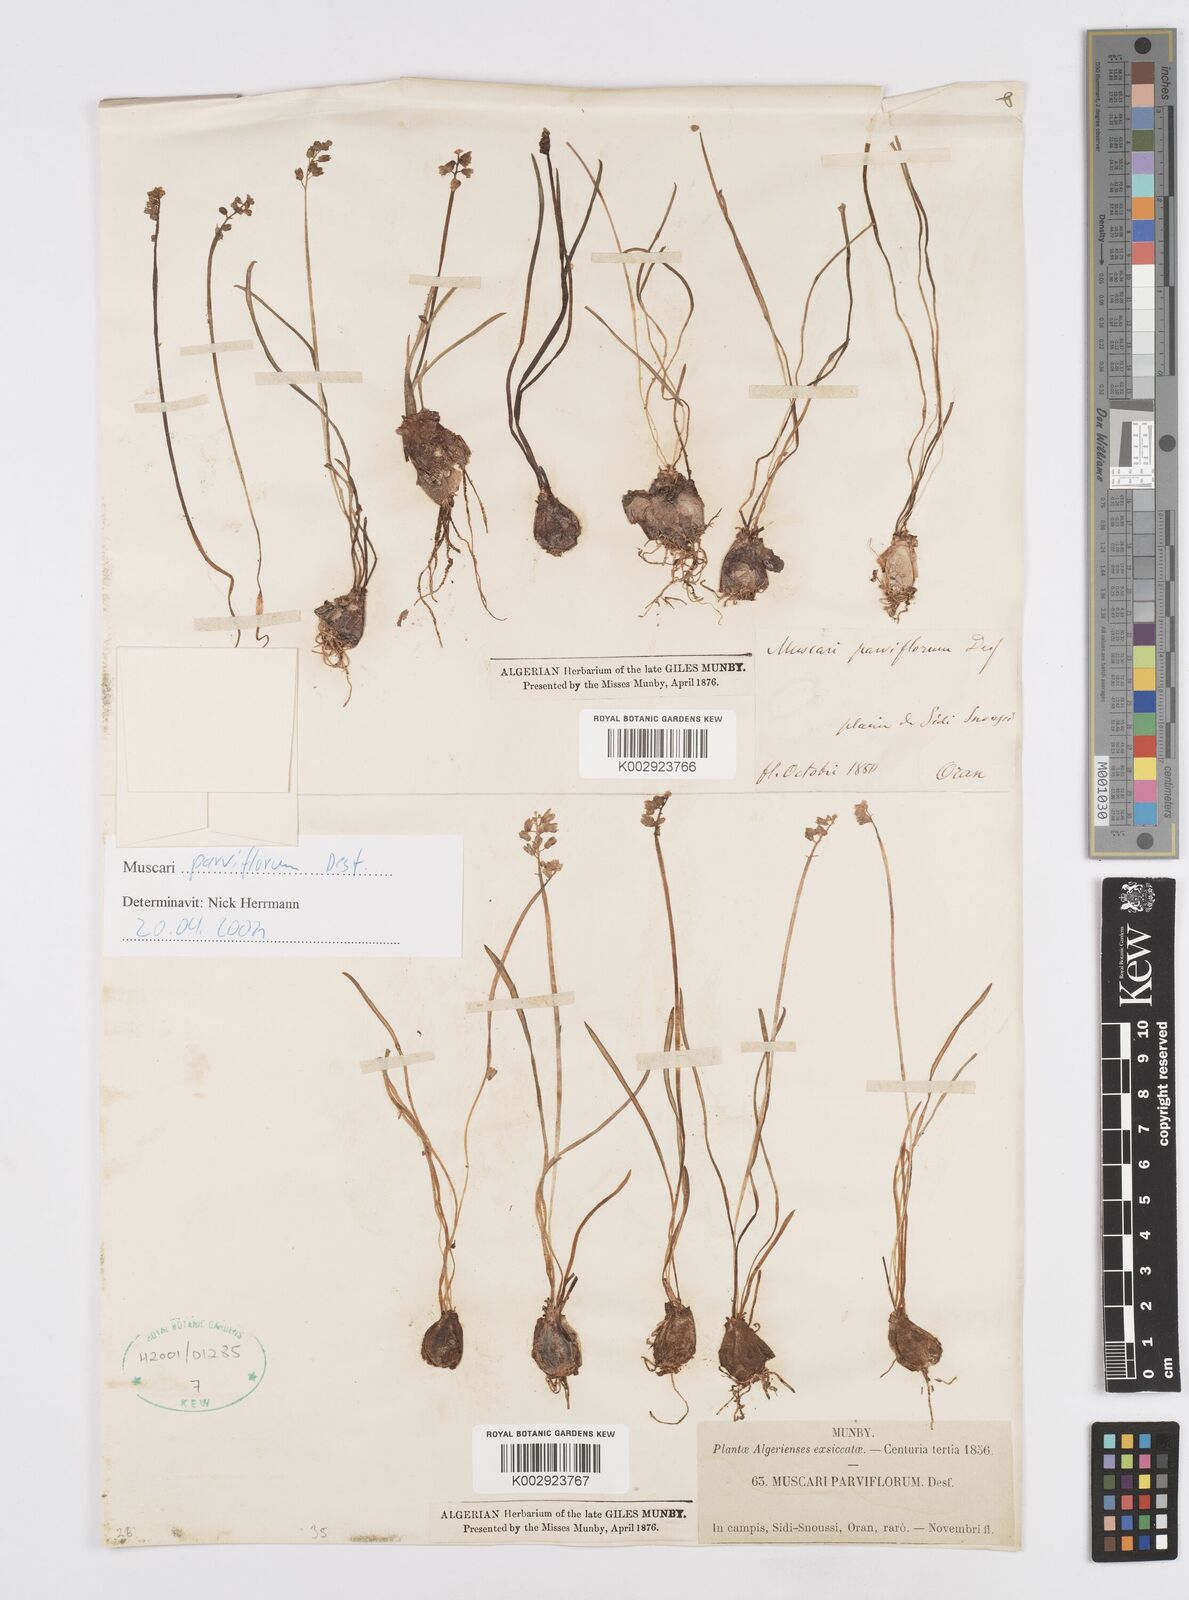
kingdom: Plantae
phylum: Tracheophyta
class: Liliopsida
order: Asparagales
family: Asparagaceae
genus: Muscari
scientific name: Muscari parviflorum
